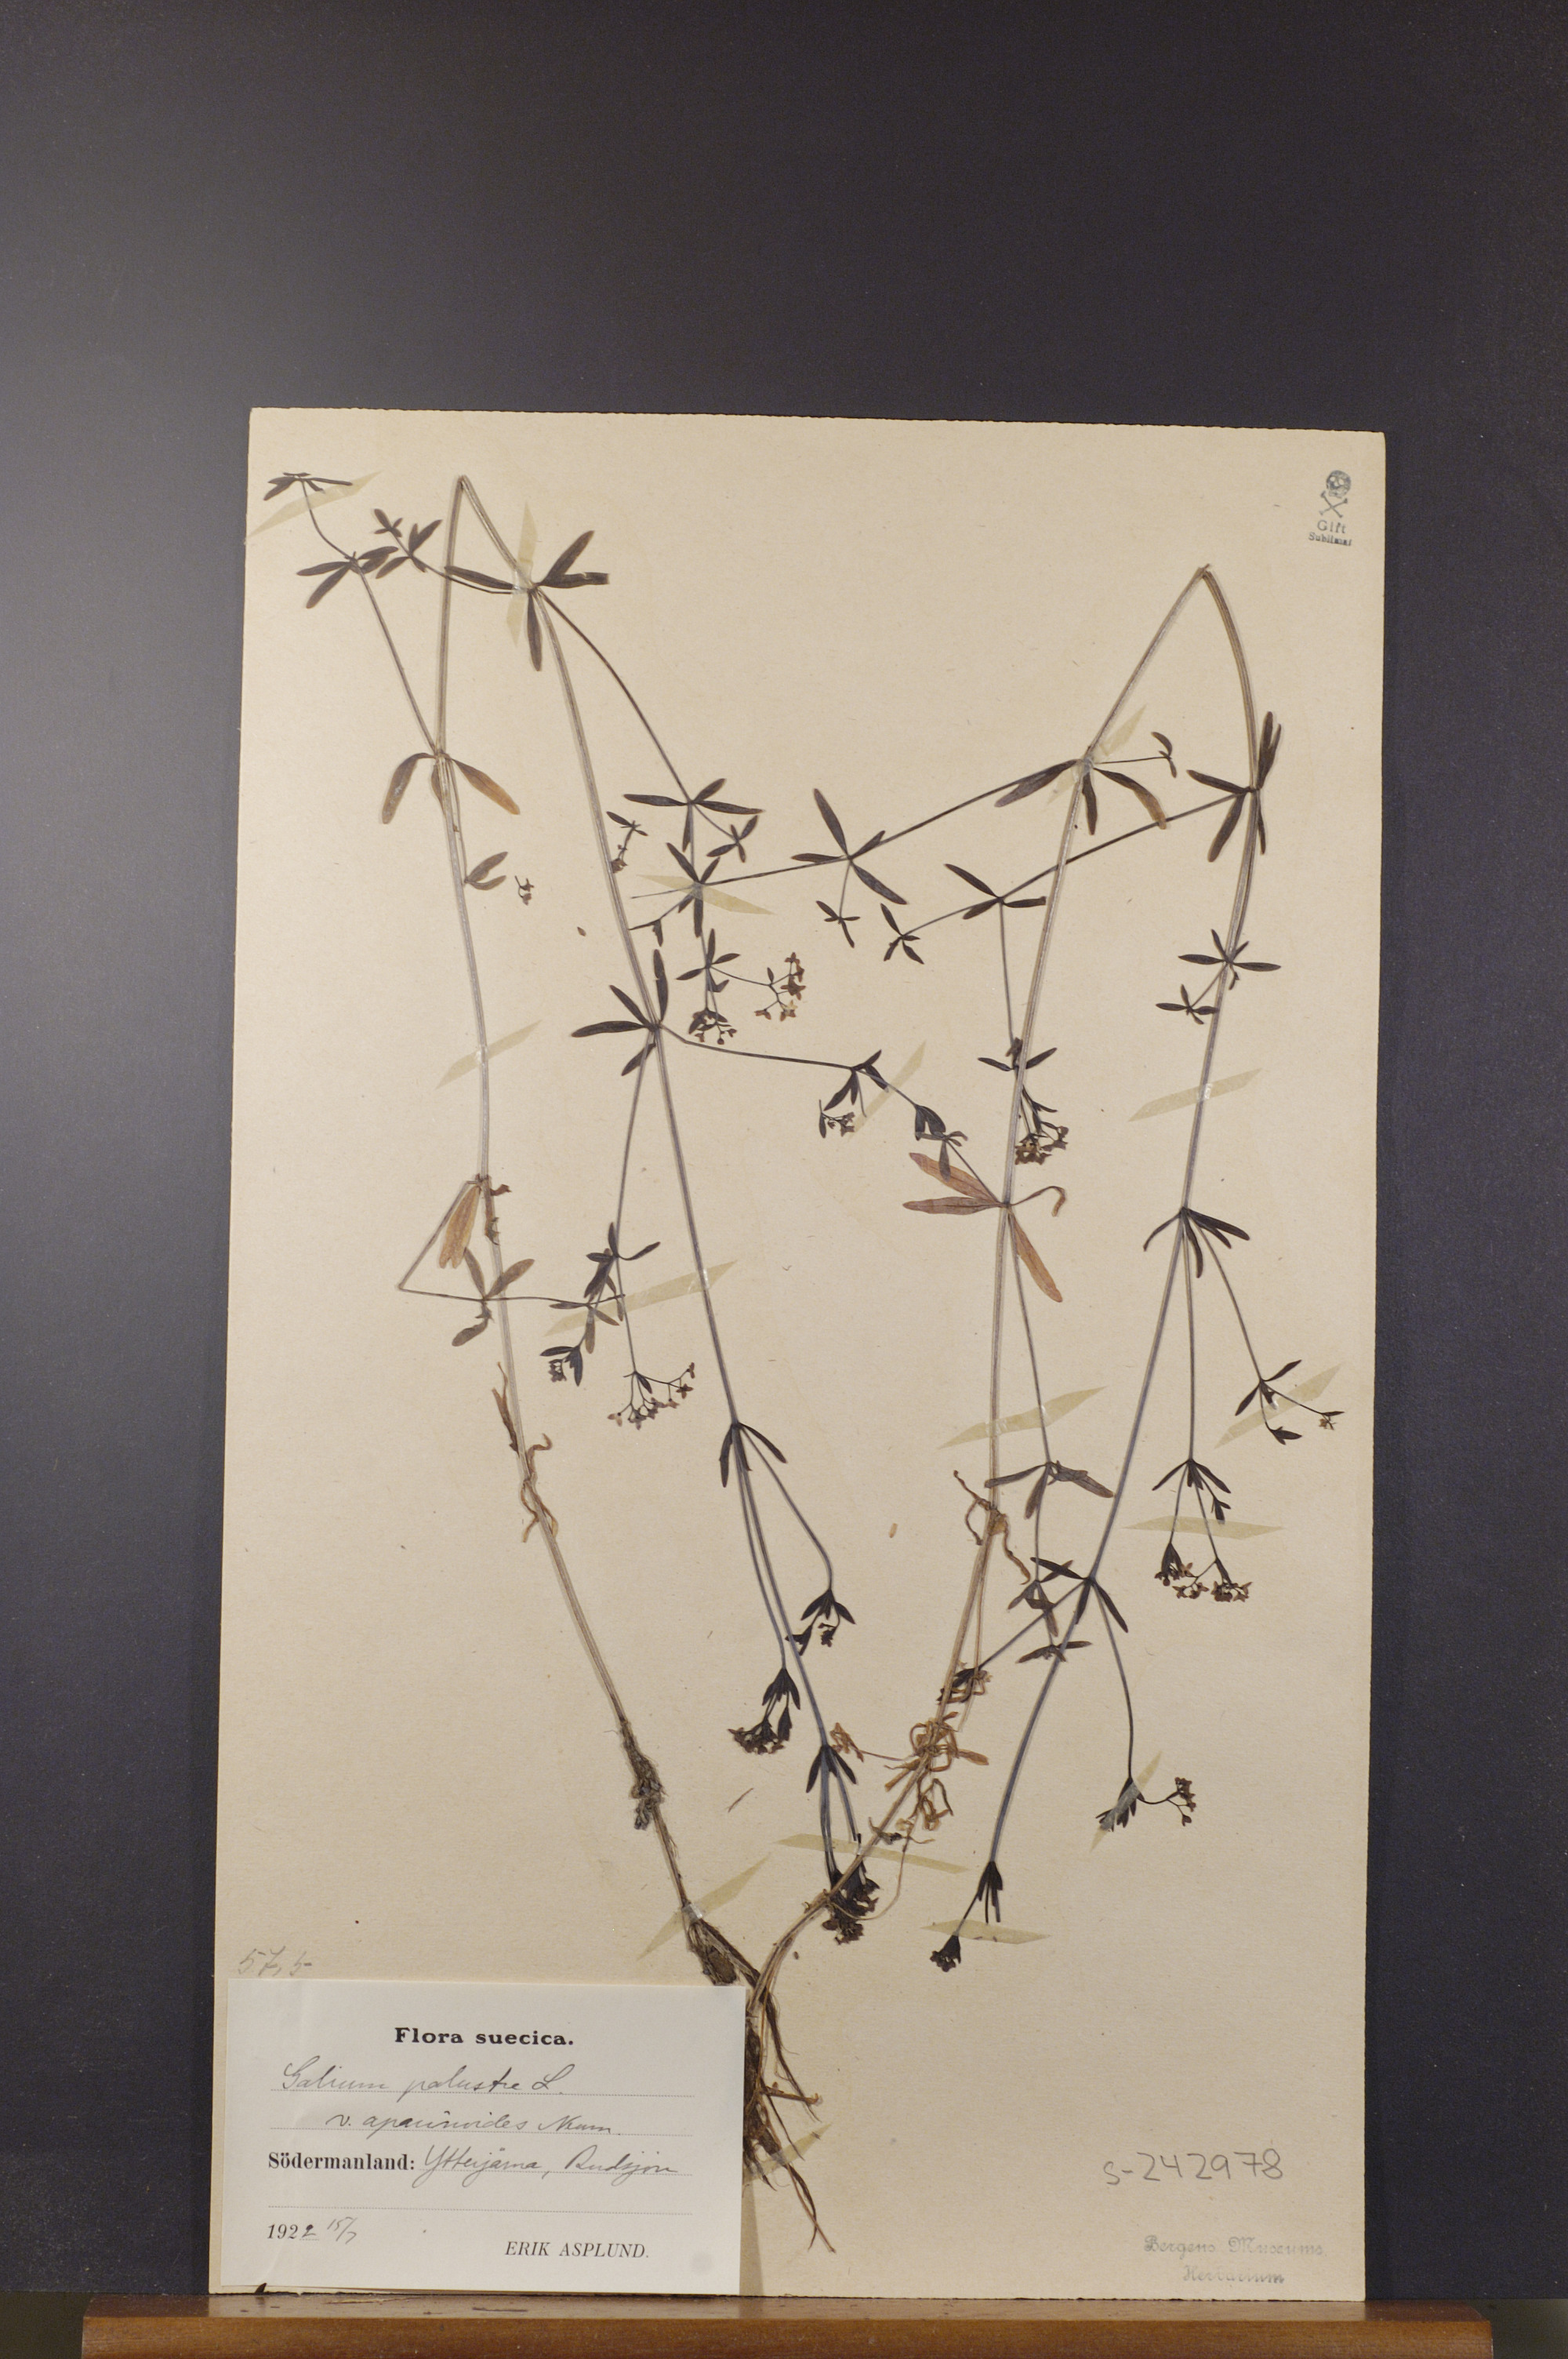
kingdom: Plantae
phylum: Tracheophyta
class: Magnoliopsida
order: Gentianales
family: Rubiaceae
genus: Galium
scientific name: Galium palustre
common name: Common marsh-bedstraw
